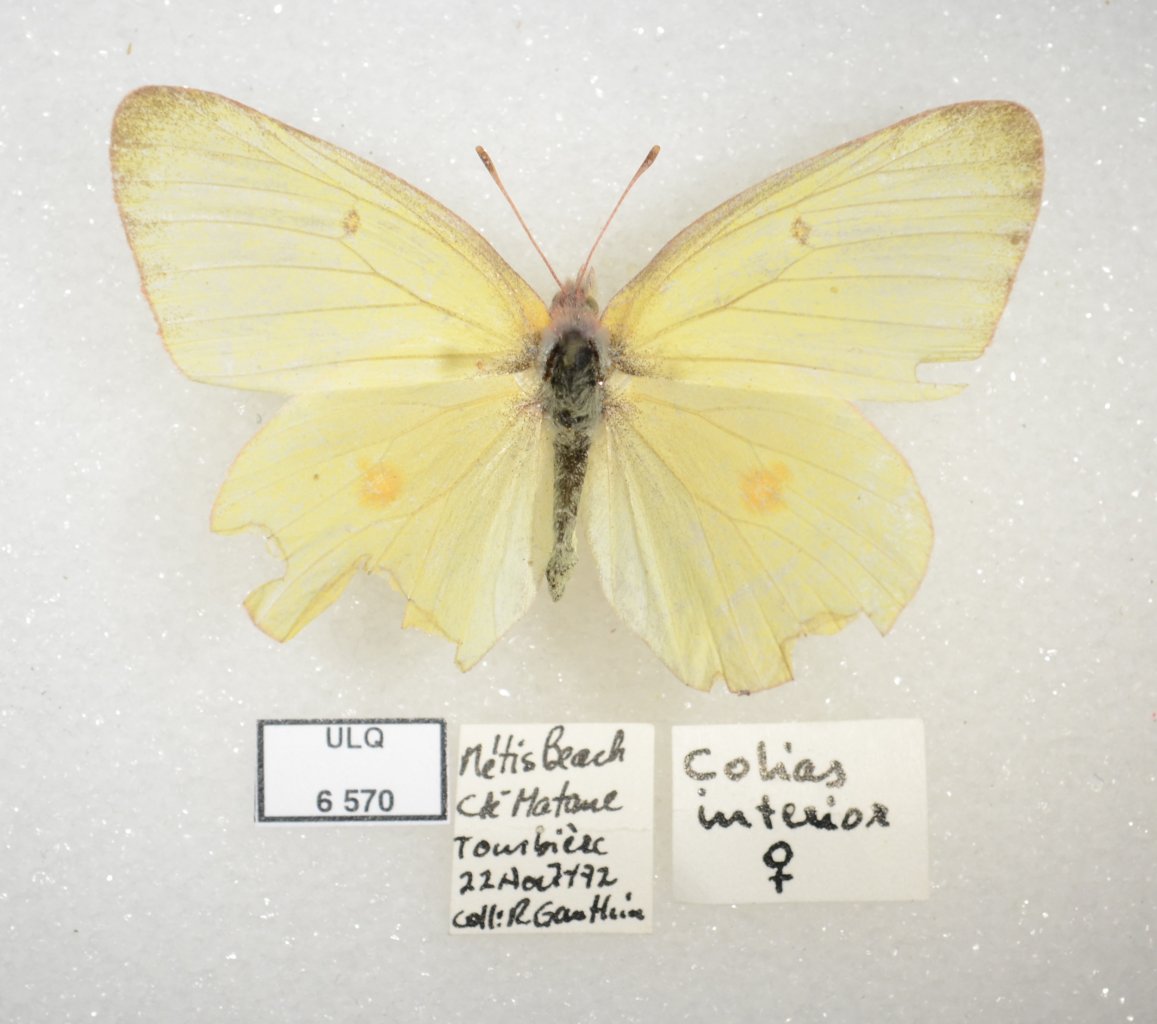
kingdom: Animalia
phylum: Arthropoda
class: Insecta
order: Lepidoptera
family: Pieridae
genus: Colias
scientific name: Colias interior
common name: Pink-edged Sulphur
